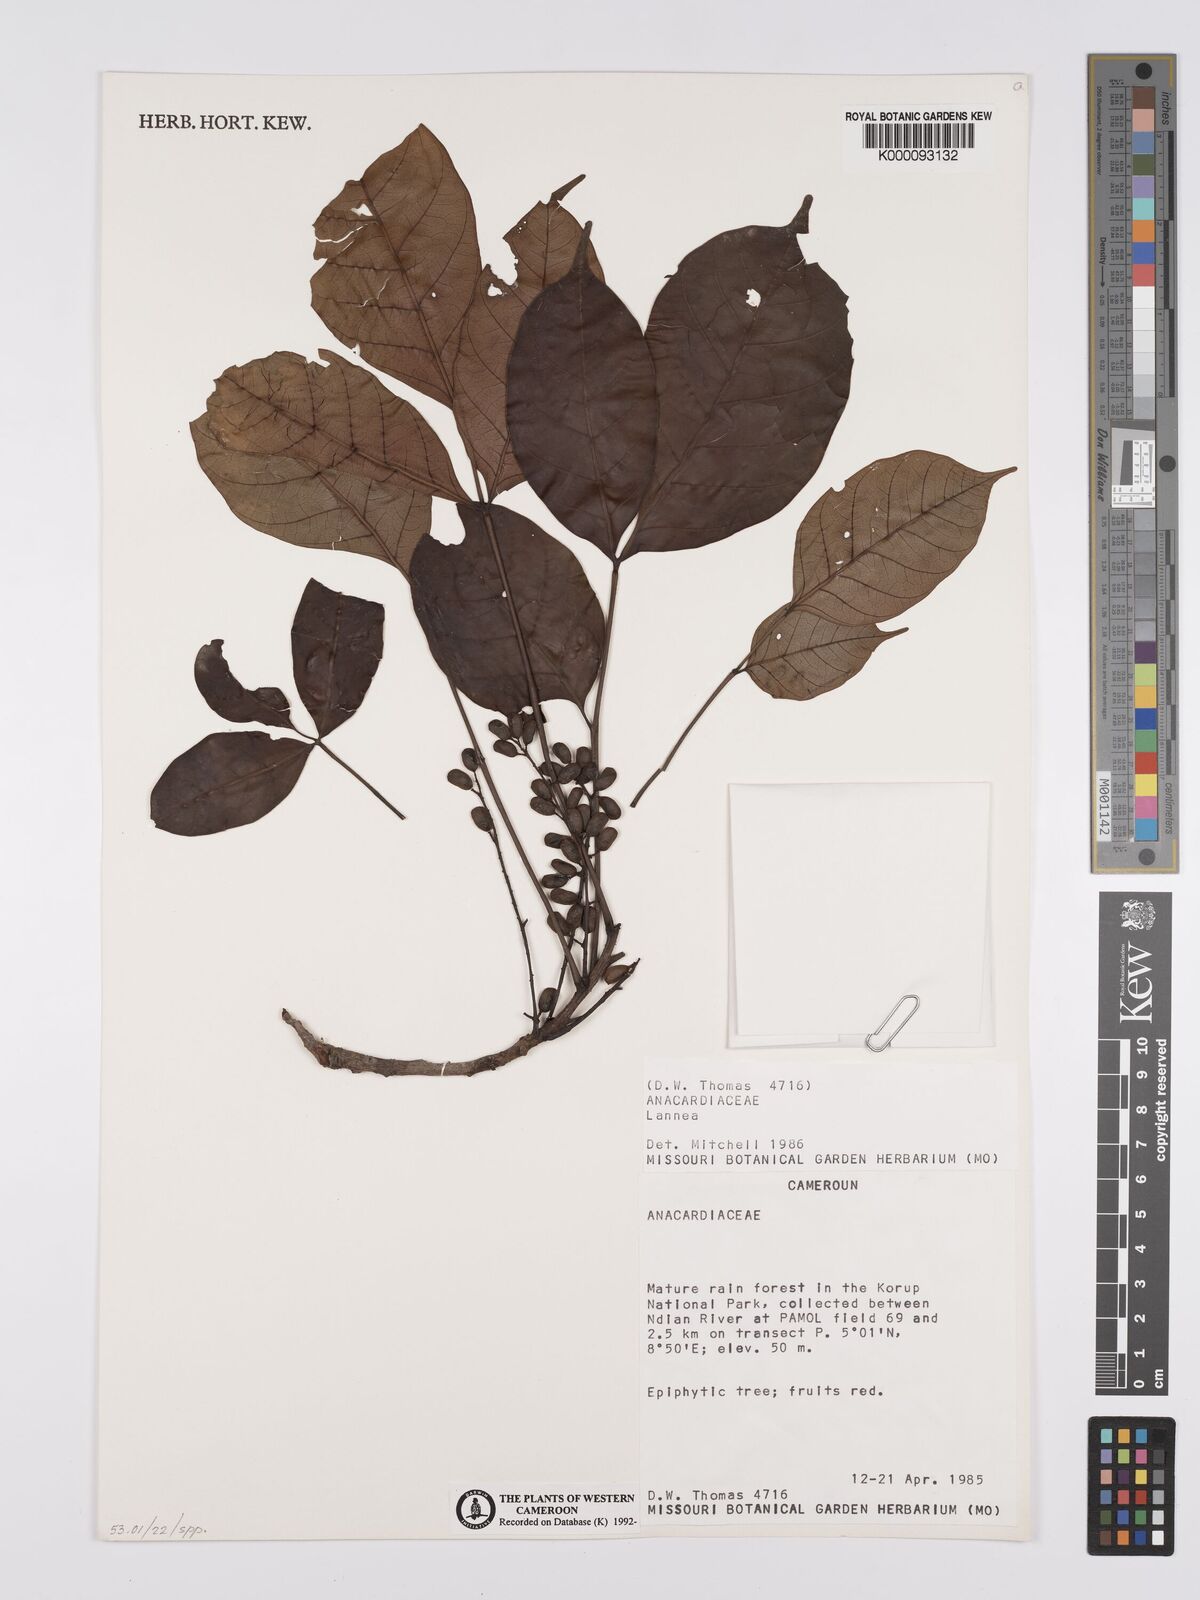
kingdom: Plantae
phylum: Tracheophyta
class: Magnoliopsida
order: Sapindales
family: Anacardiaceae
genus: Lannea
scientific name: Lannea
